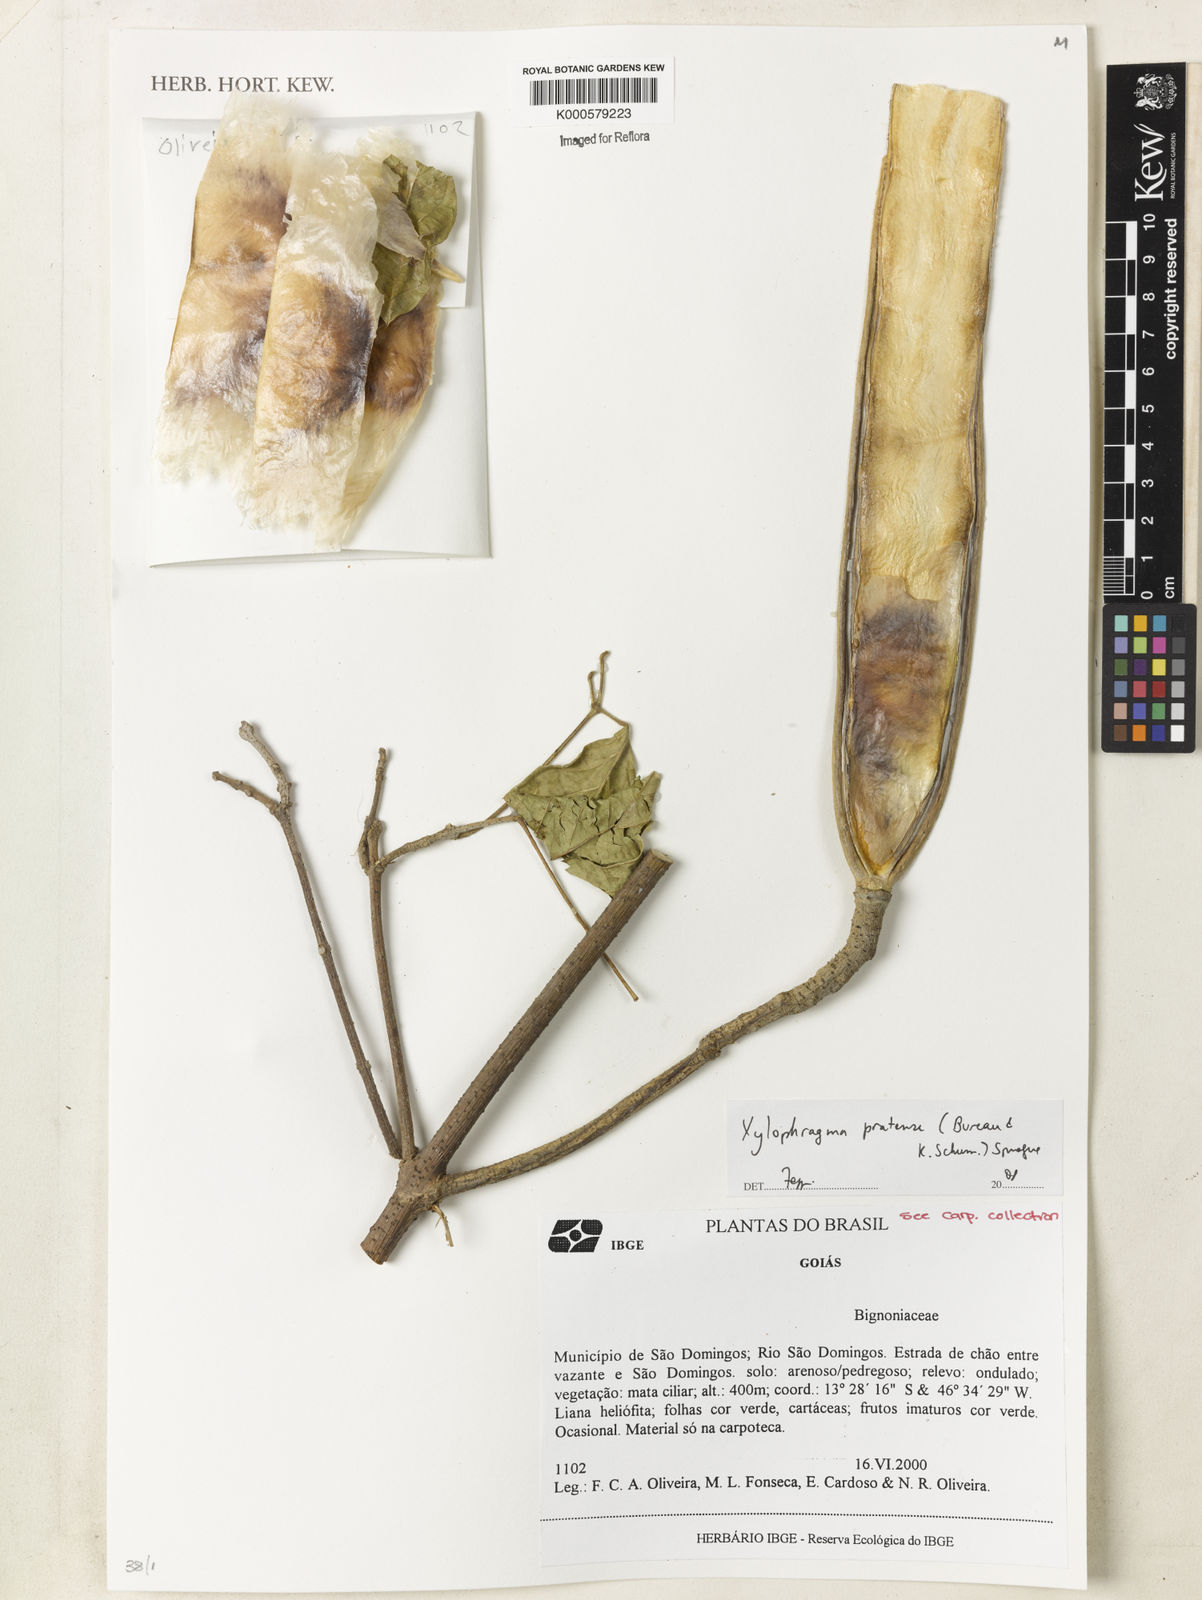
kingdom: Plantae
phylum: Tracheophyta
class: Magnoliopsida
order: Lamiales
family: Bignoniaceae
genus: Xylophragma
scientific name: Xylophragma pratense
